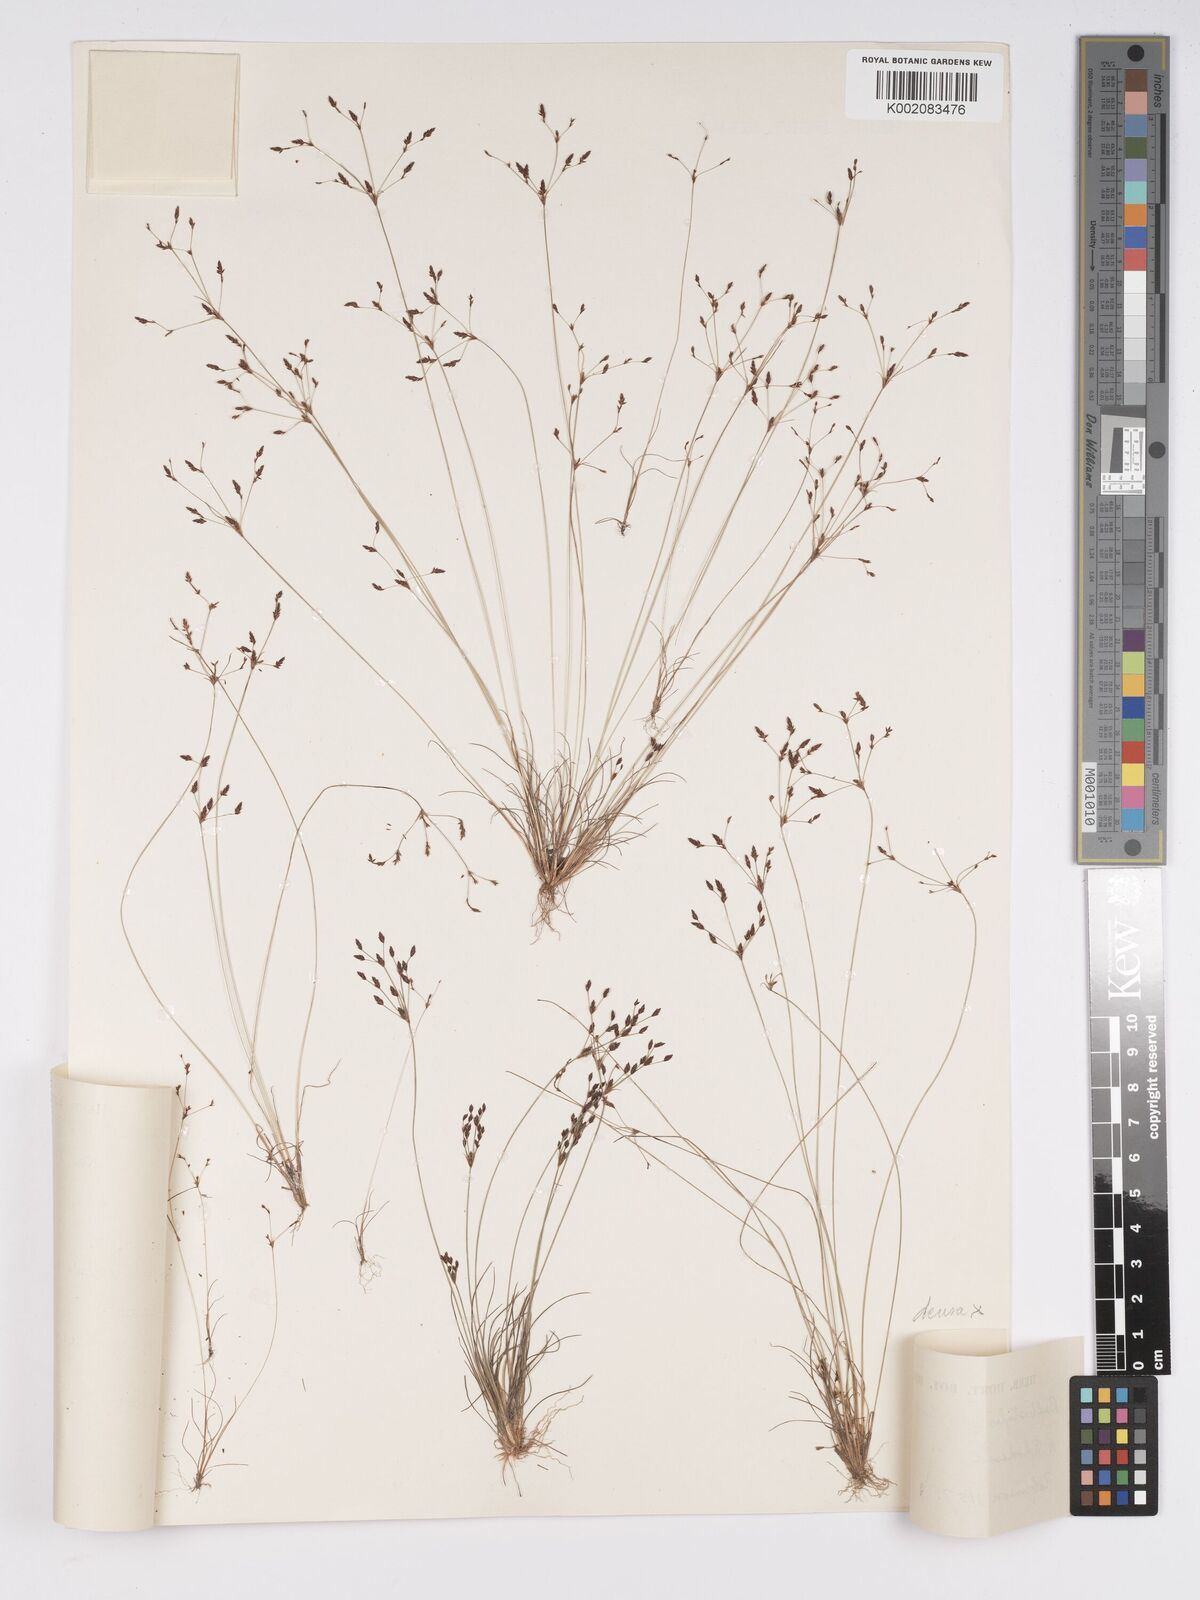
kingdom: Plantae
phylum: Tracheophyta
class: Liliopsida
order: Poales
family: Cyperaceae
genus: Bulbostylis
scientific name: Bulbostylis densa
